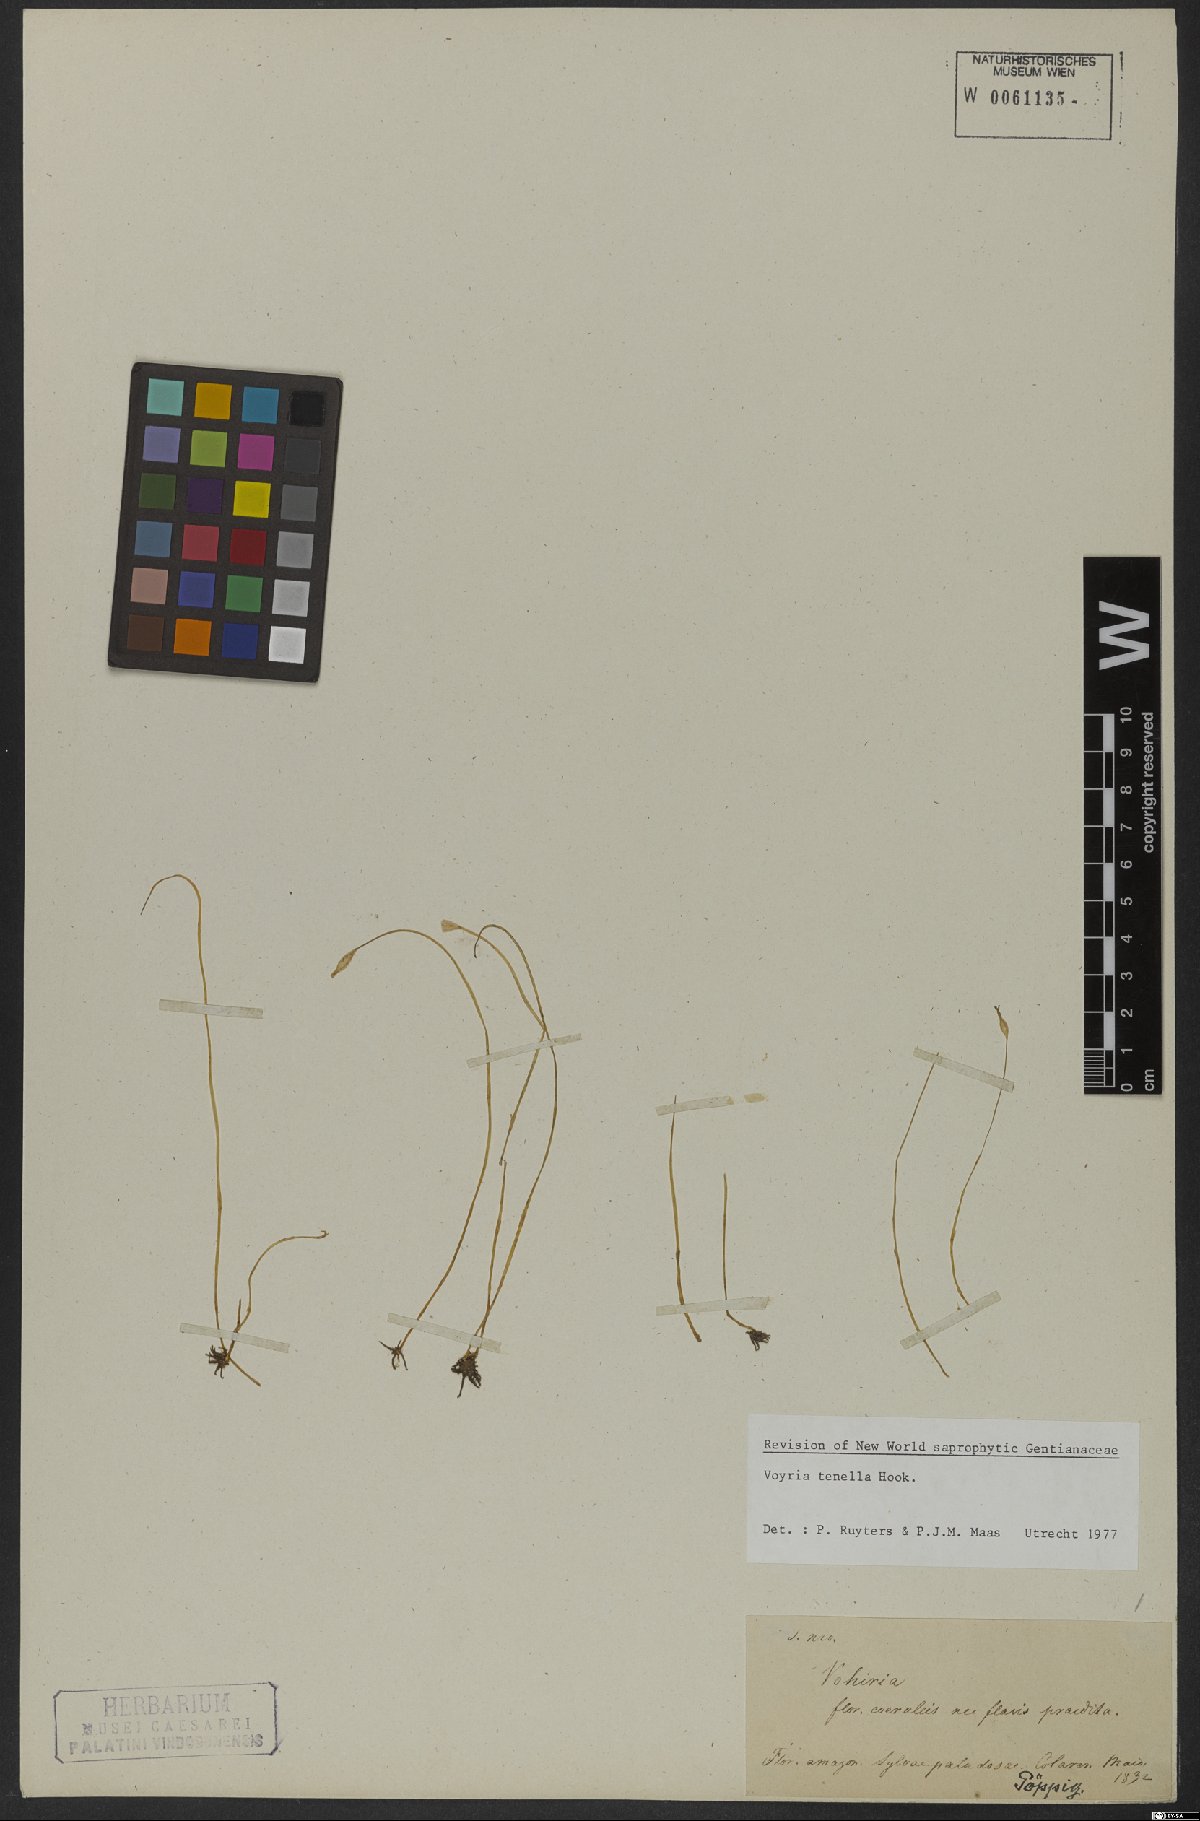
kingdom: Plantae
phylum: Tracheophyta
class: Magnoliopsida
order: Gentianales
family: Gentianaceae
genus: Voyria
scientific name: Voyria tenella
